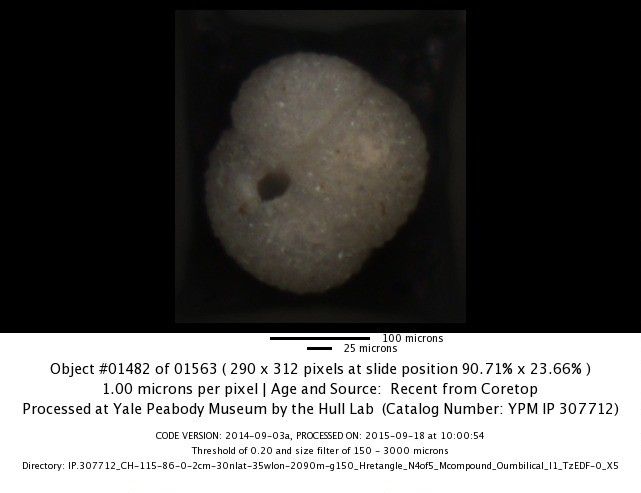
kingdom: Chromista
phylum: Foraminifera
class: Globothalamea
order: Rotaliida
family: Globigerinidae
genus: Globigerinoides
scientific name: Globigerinoides ruber
